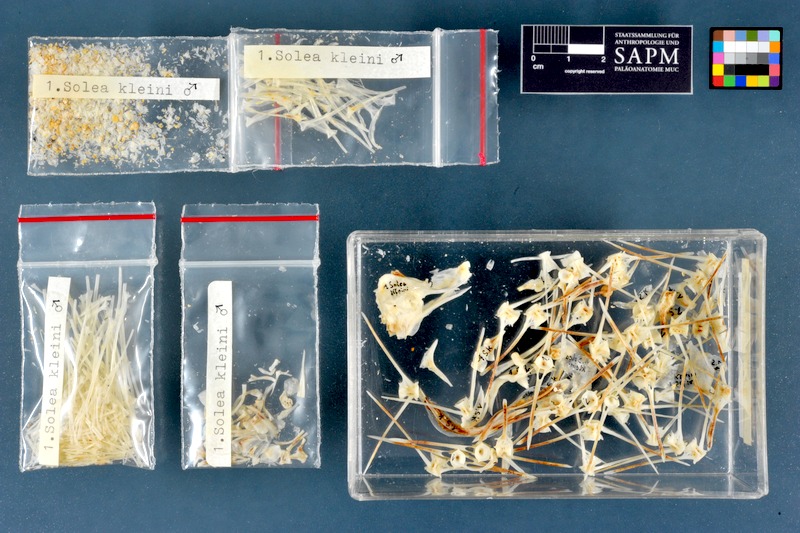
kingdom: Animalia
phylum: Chordata
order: Pleuronectiformes
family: Soleidae
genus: Synapturichthys
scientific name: Synapturichthys kleinii
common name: Klein's sole
